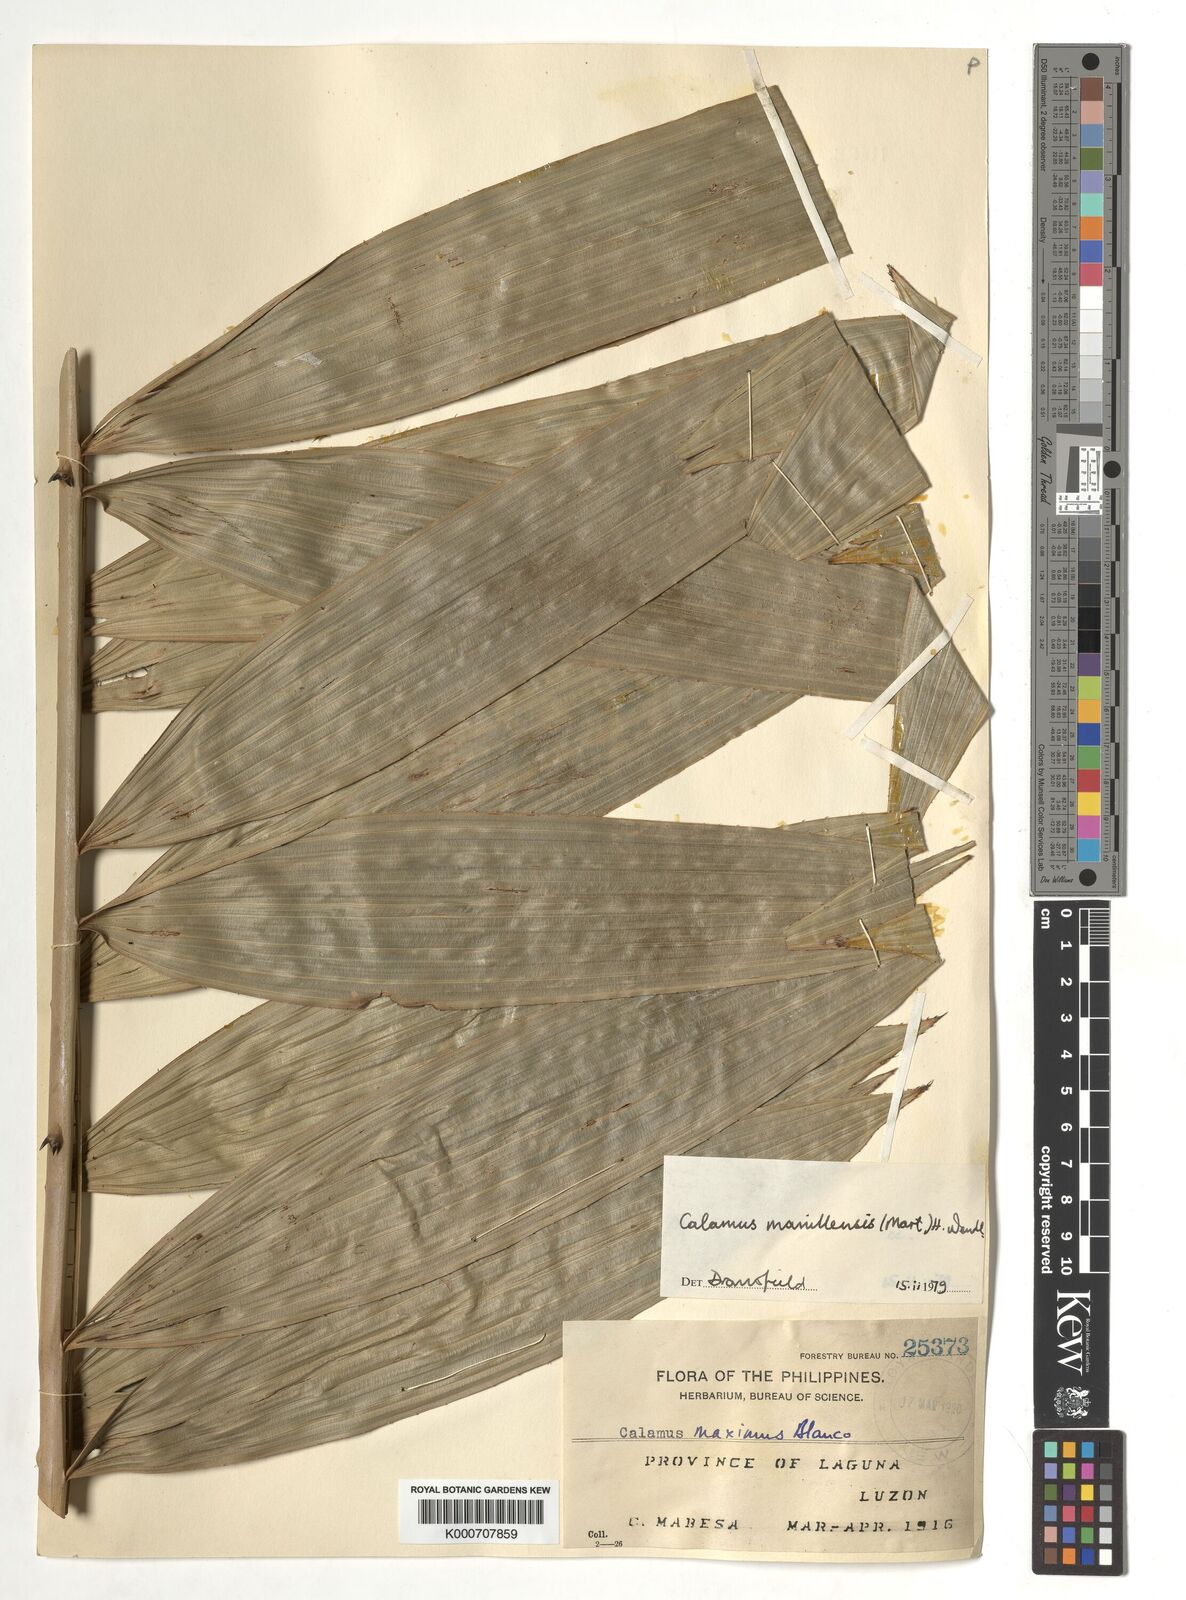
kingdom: Plantae
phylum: Tracheophyta
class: Liliopsida
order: Arecales
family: Arecaceae
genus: Calamus
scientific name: Calamus manillensis
